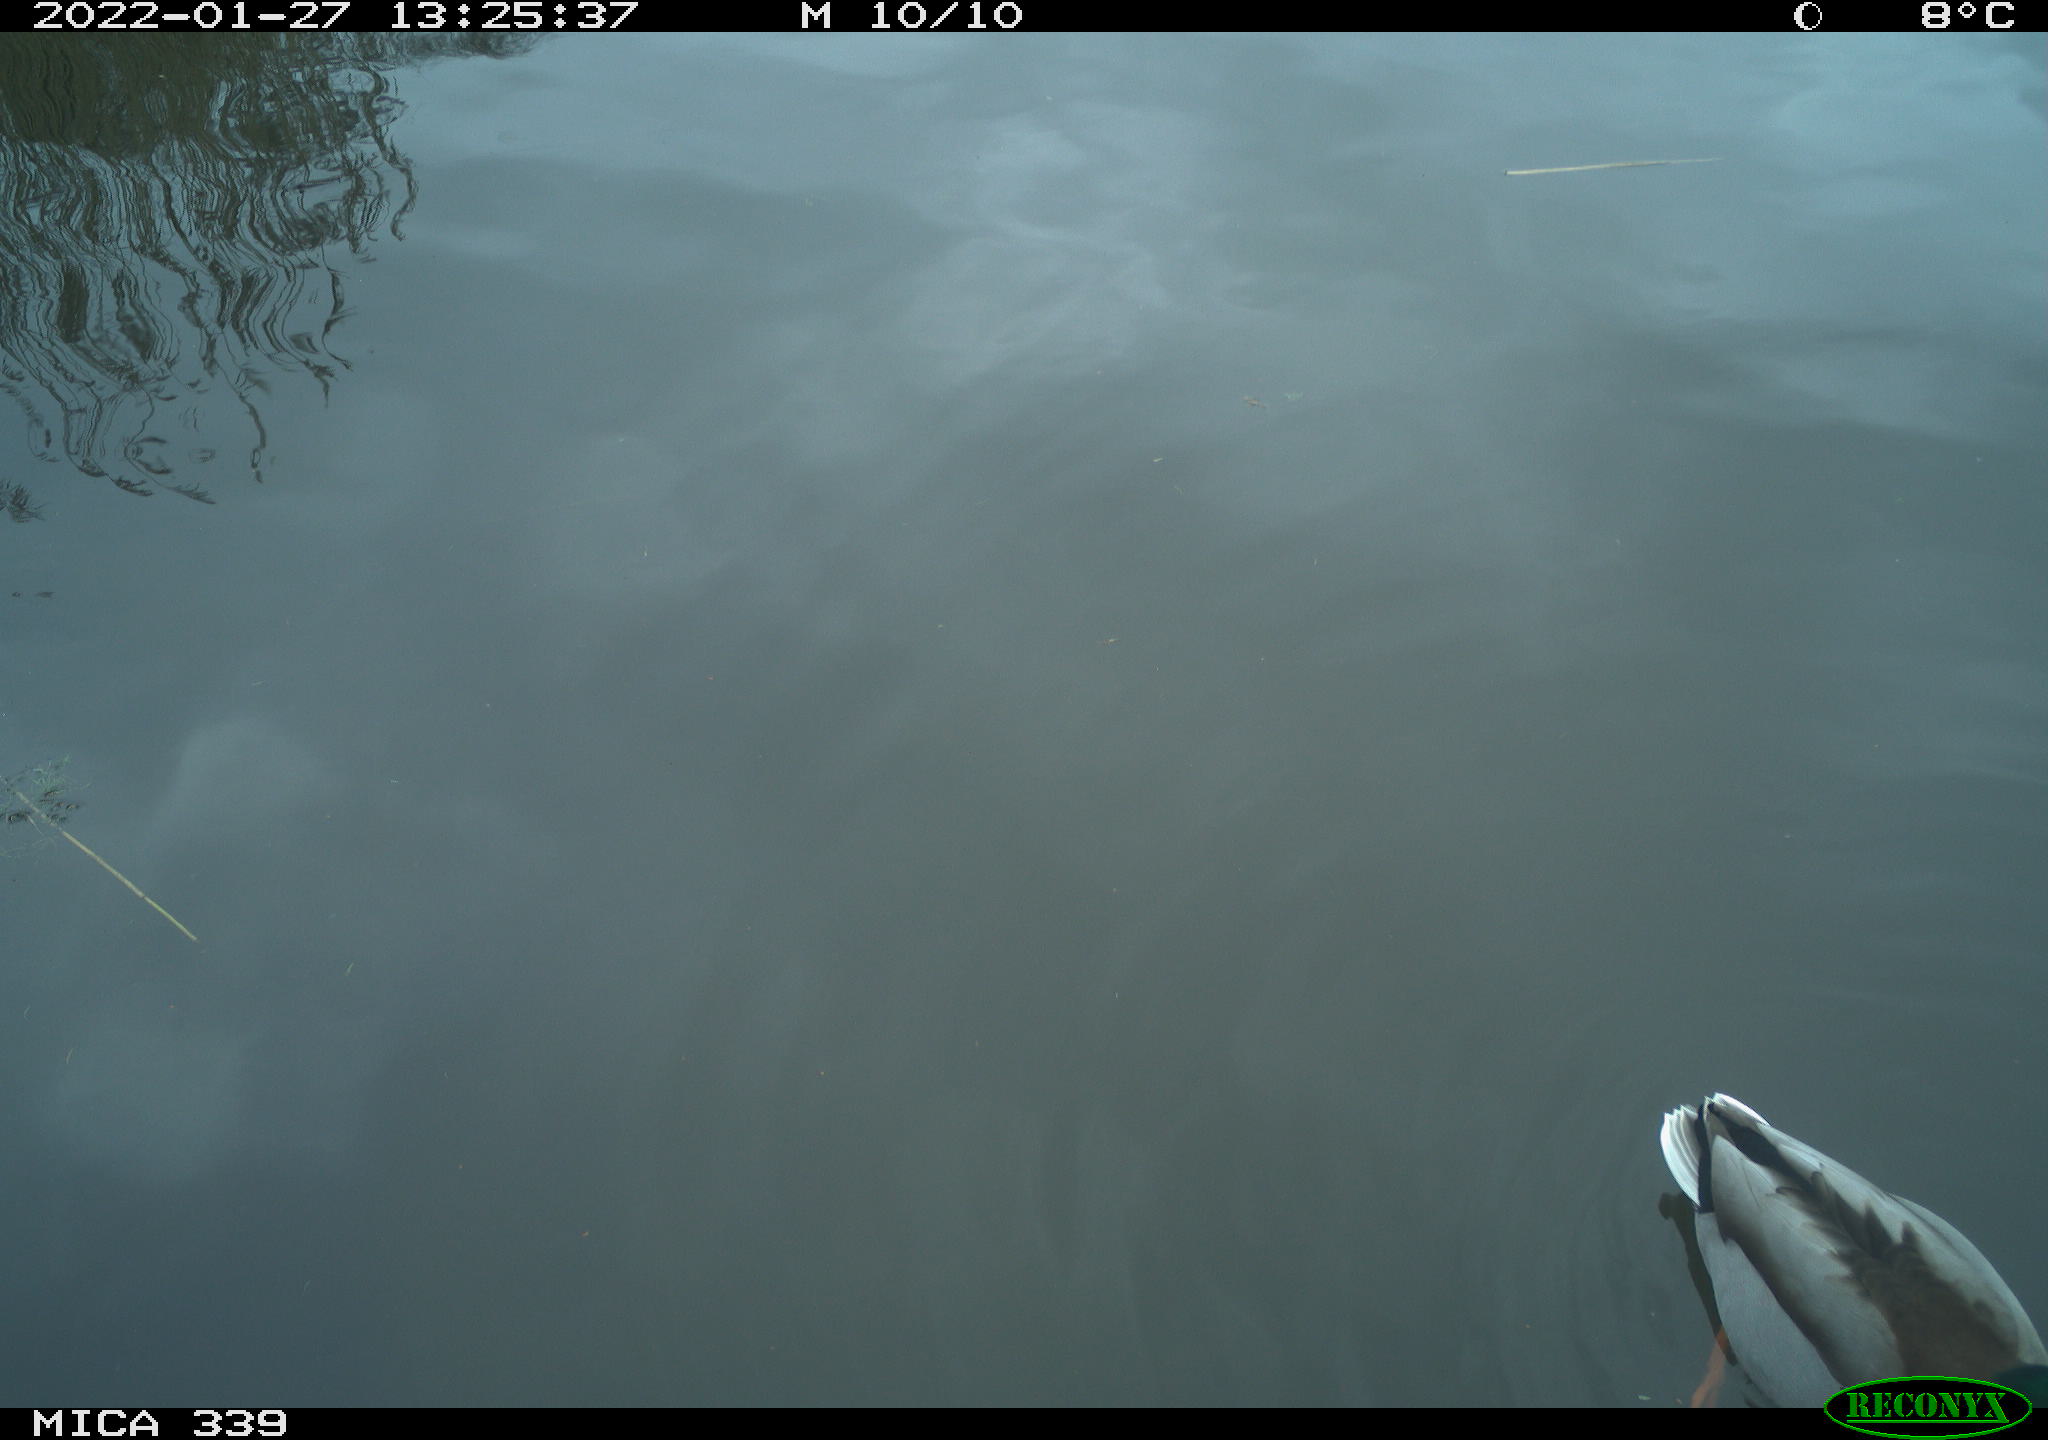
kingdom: Animalia
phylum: Chordata
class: Aves
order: Anseriformes
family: Anatidae
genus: Anas
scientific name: Anas platyrhynchos
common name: Mallard
